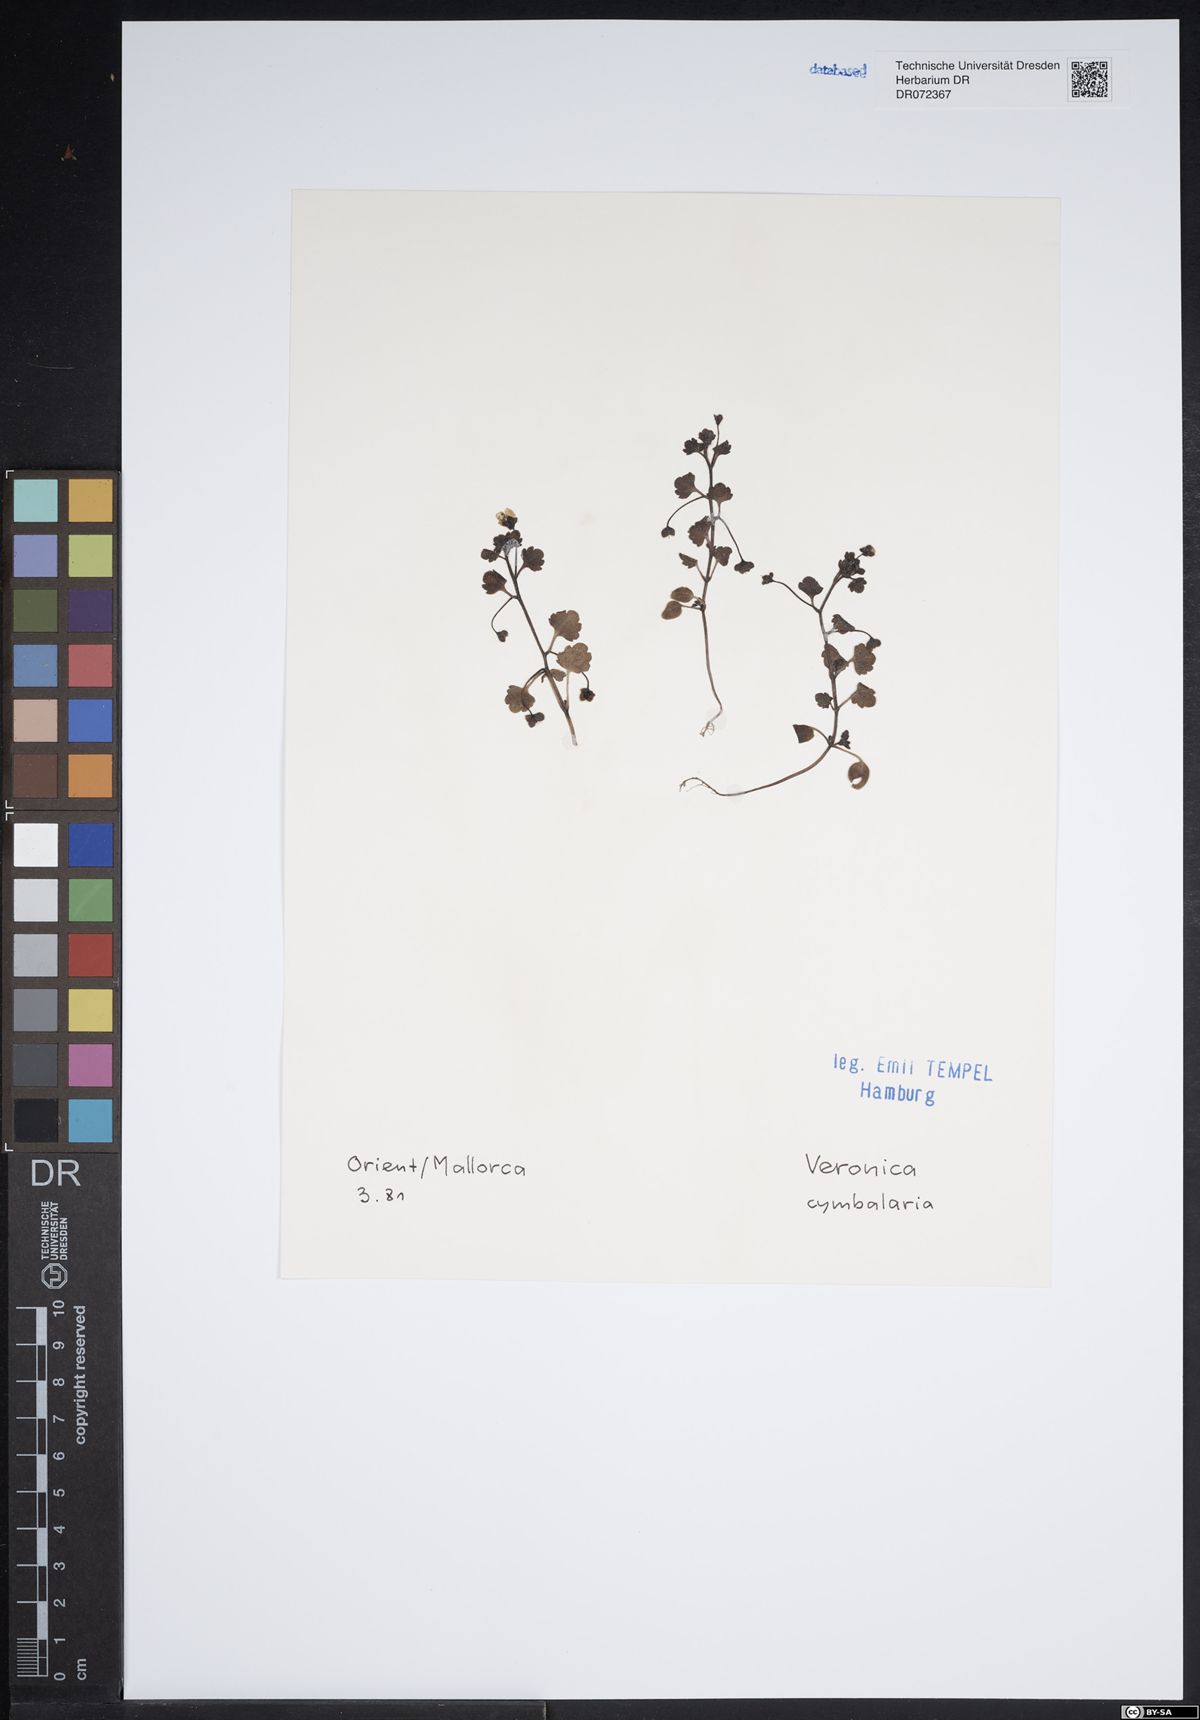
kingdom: Plantae
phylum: Tracheophyta
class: Magnoliopsida
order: Lamiales
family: Plantaginaceae
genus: Veronica
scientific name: Veronica cymbalaria
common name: Pale speedwell
